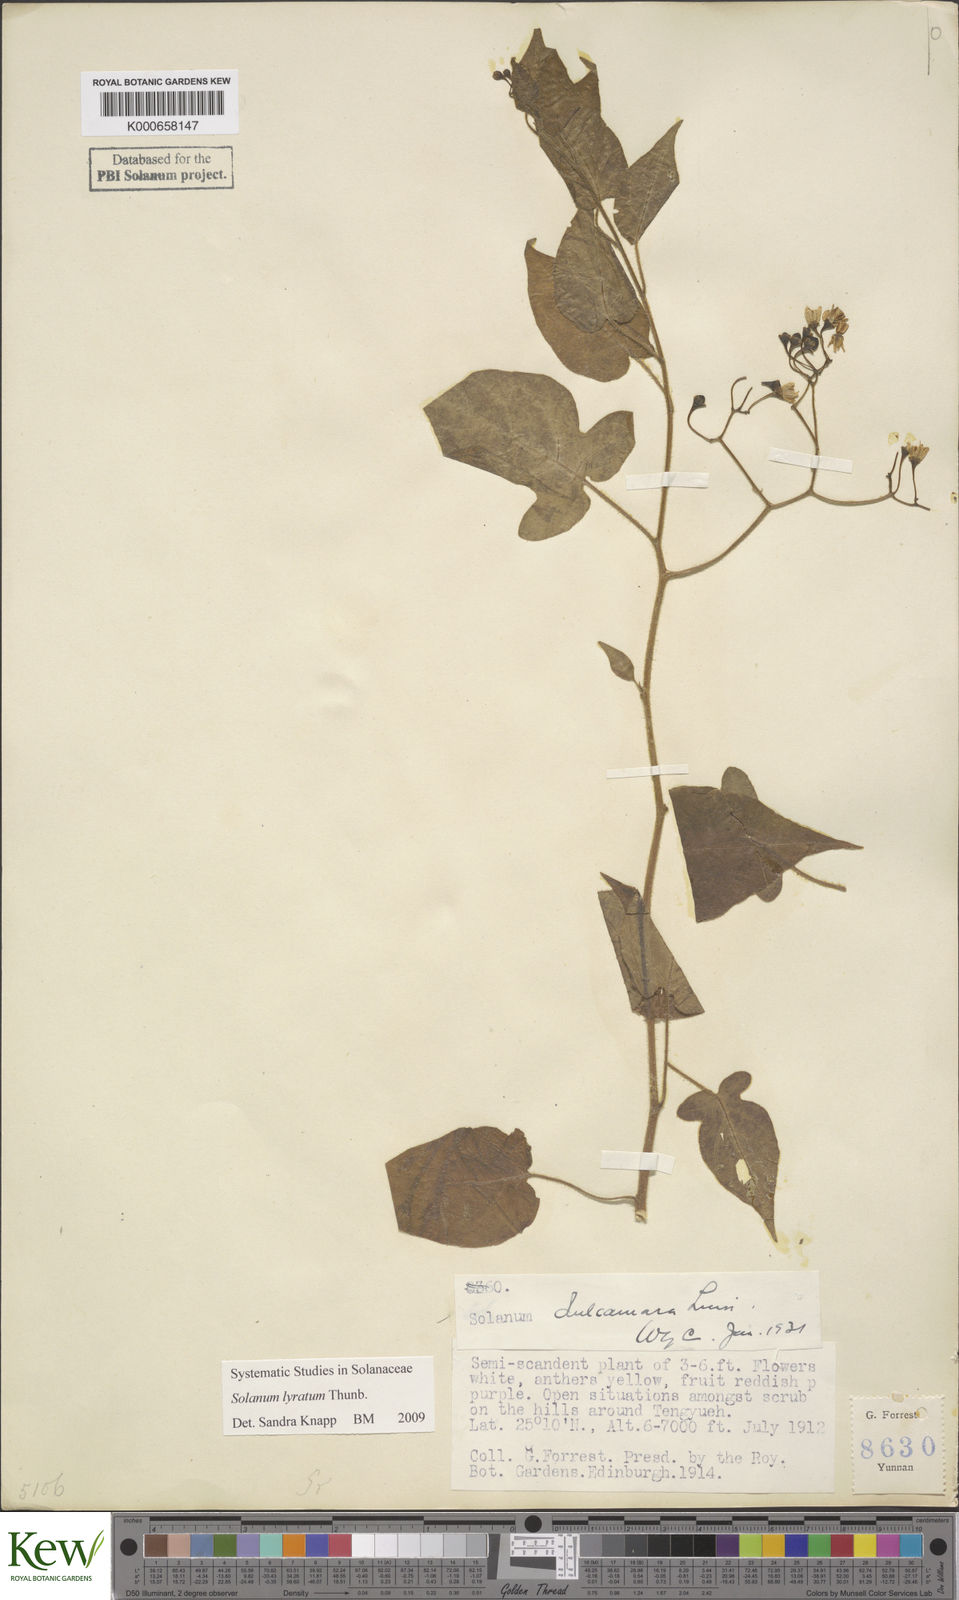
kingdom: Plantae
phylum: Tracheophyta
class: Magnoliopsida
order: Solanales
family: Solanaceae
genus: Solanum
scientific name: Solanum lyratum
